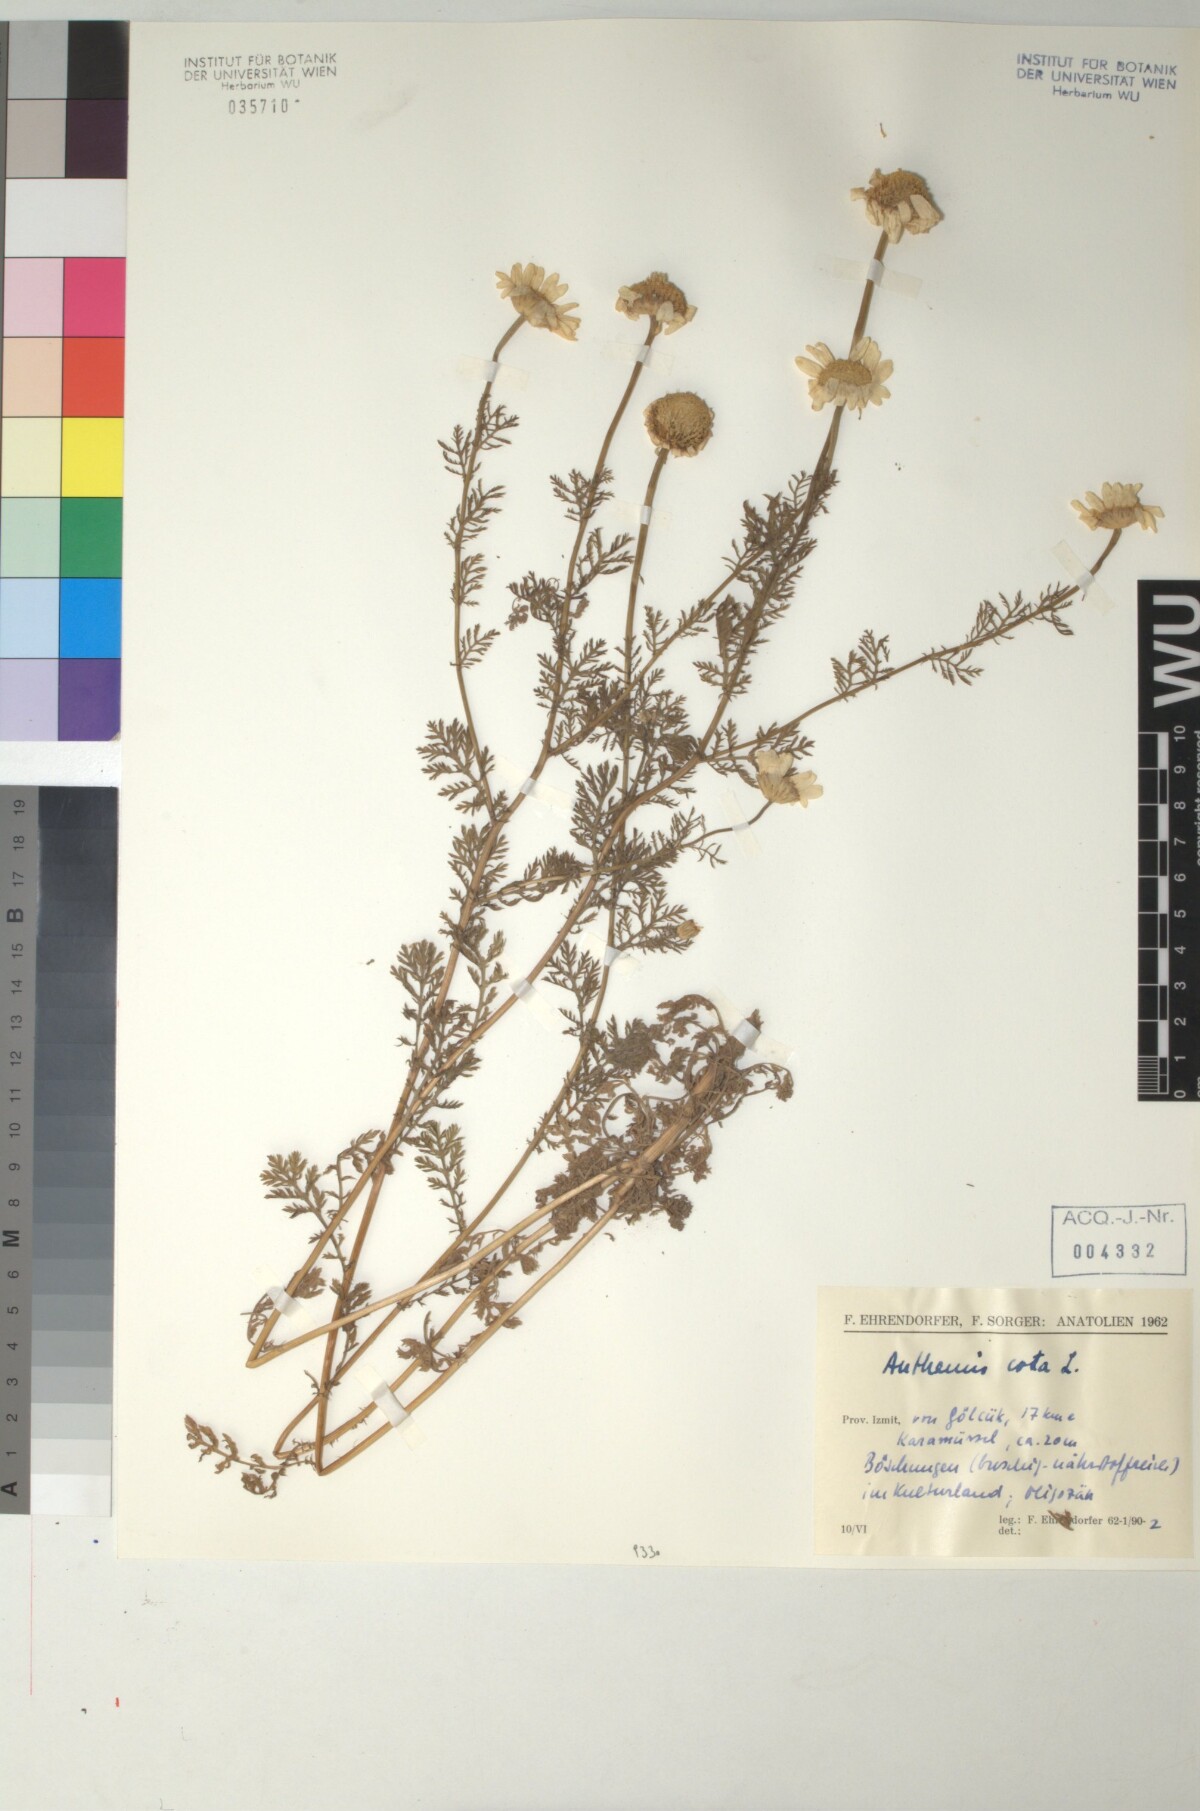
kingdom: Plantae
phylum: Tracheophyta
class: Magnoliopsida
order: Asterales
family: Asteraceae
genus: Cota
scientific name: Cota altissima
